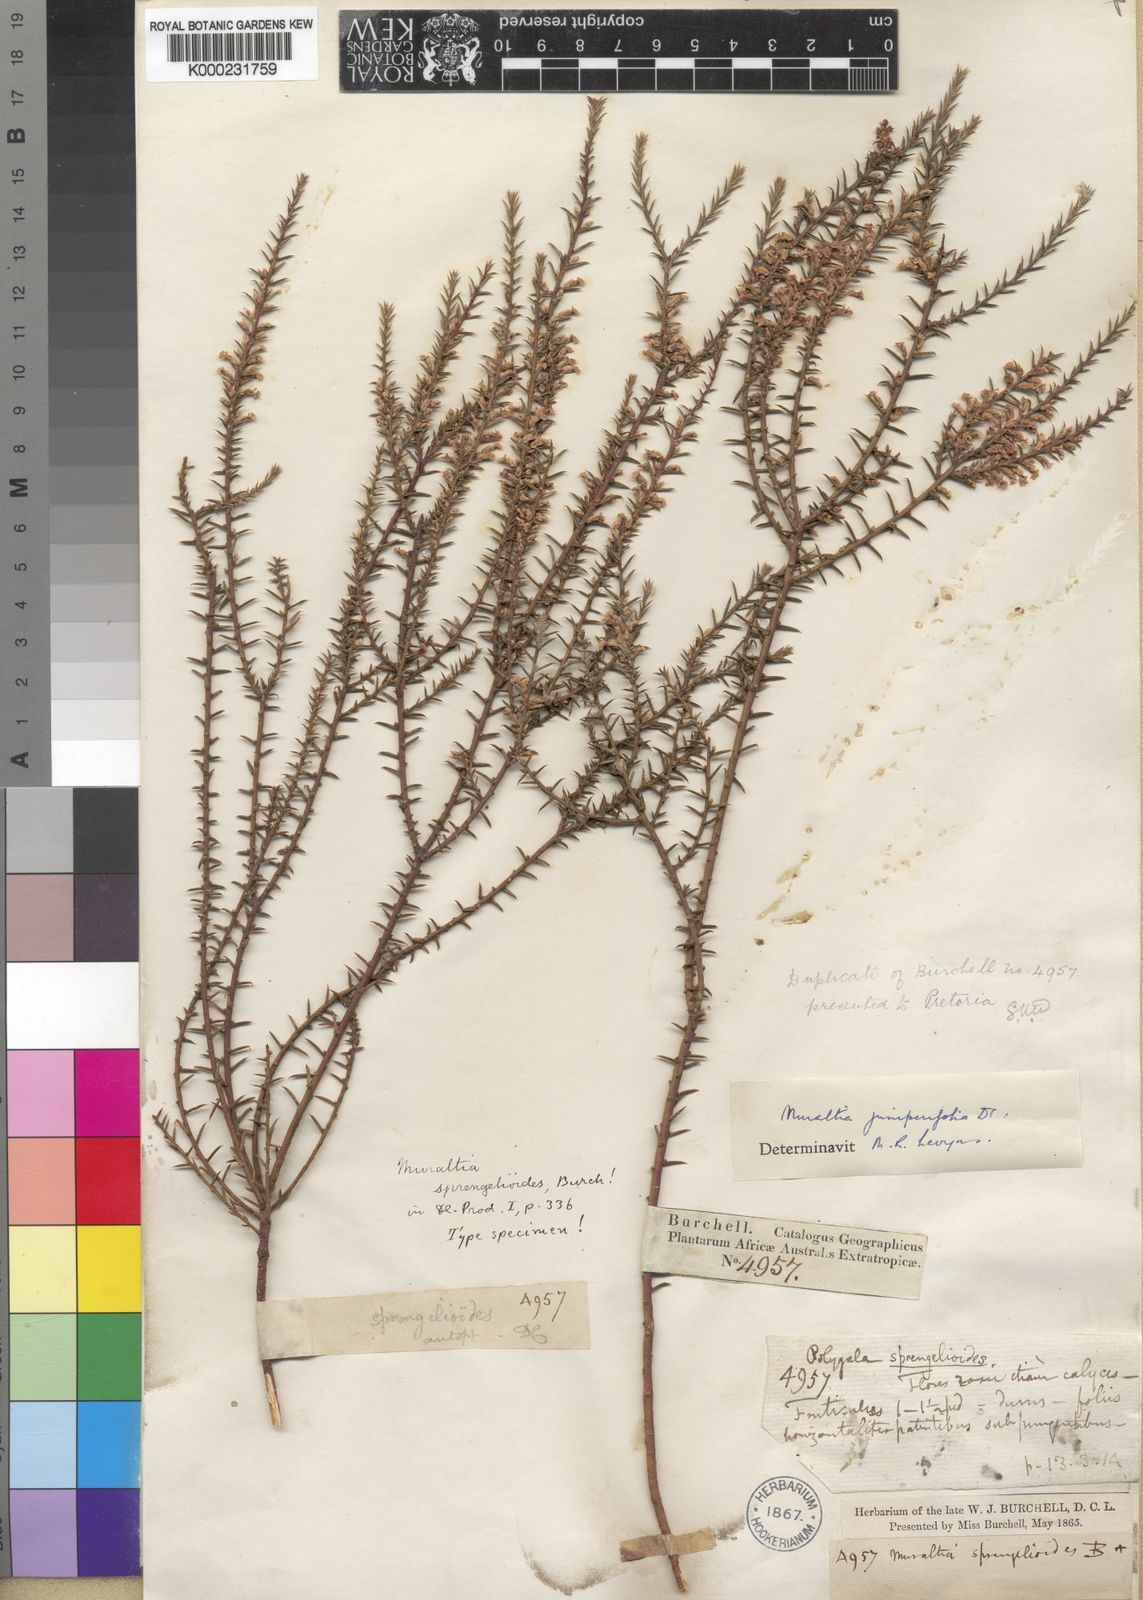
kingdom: Plantae
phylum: Tracheophyta
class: Magnoliopsida
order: Fabales
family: Polygalaceae
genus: Muraltia
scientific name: Muraltia juniperifolia
